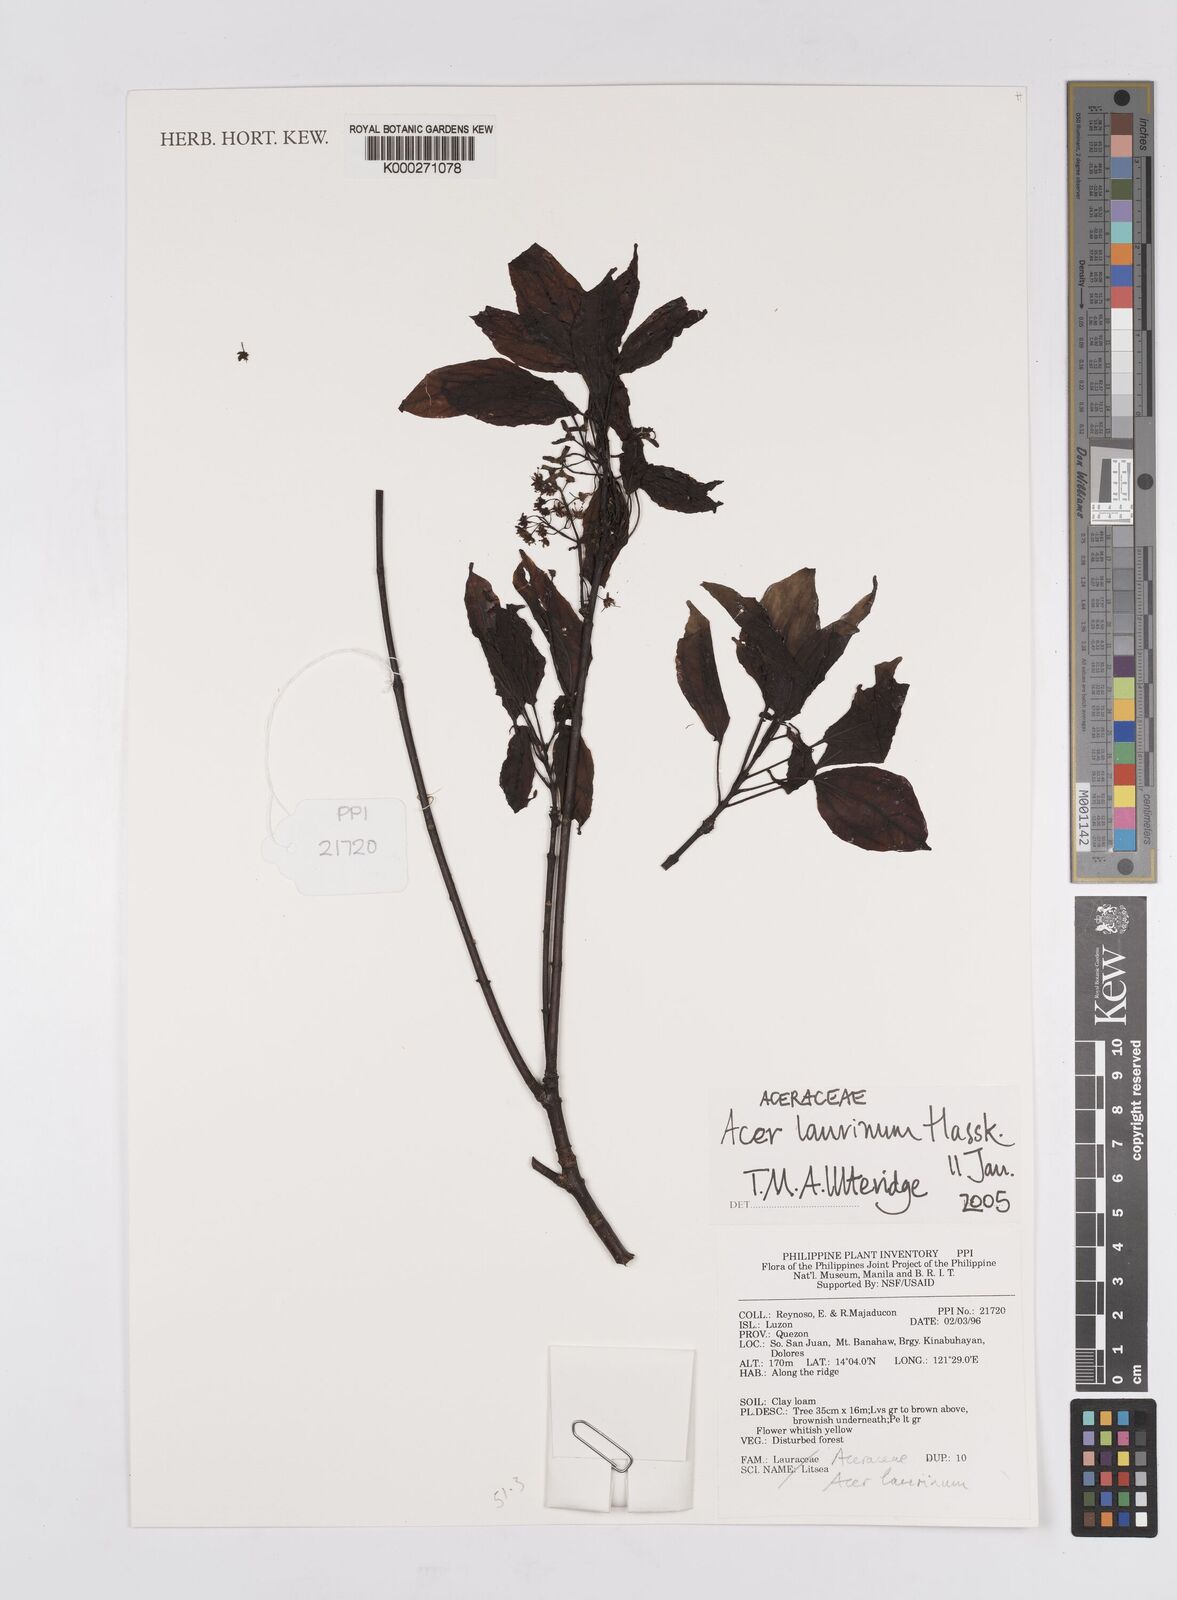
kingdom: Plantae
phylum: Tracheophyta
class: Magnoliopsida
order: Sapindales
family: Sapindaceae
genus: Acer
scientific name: Acer laurinum
